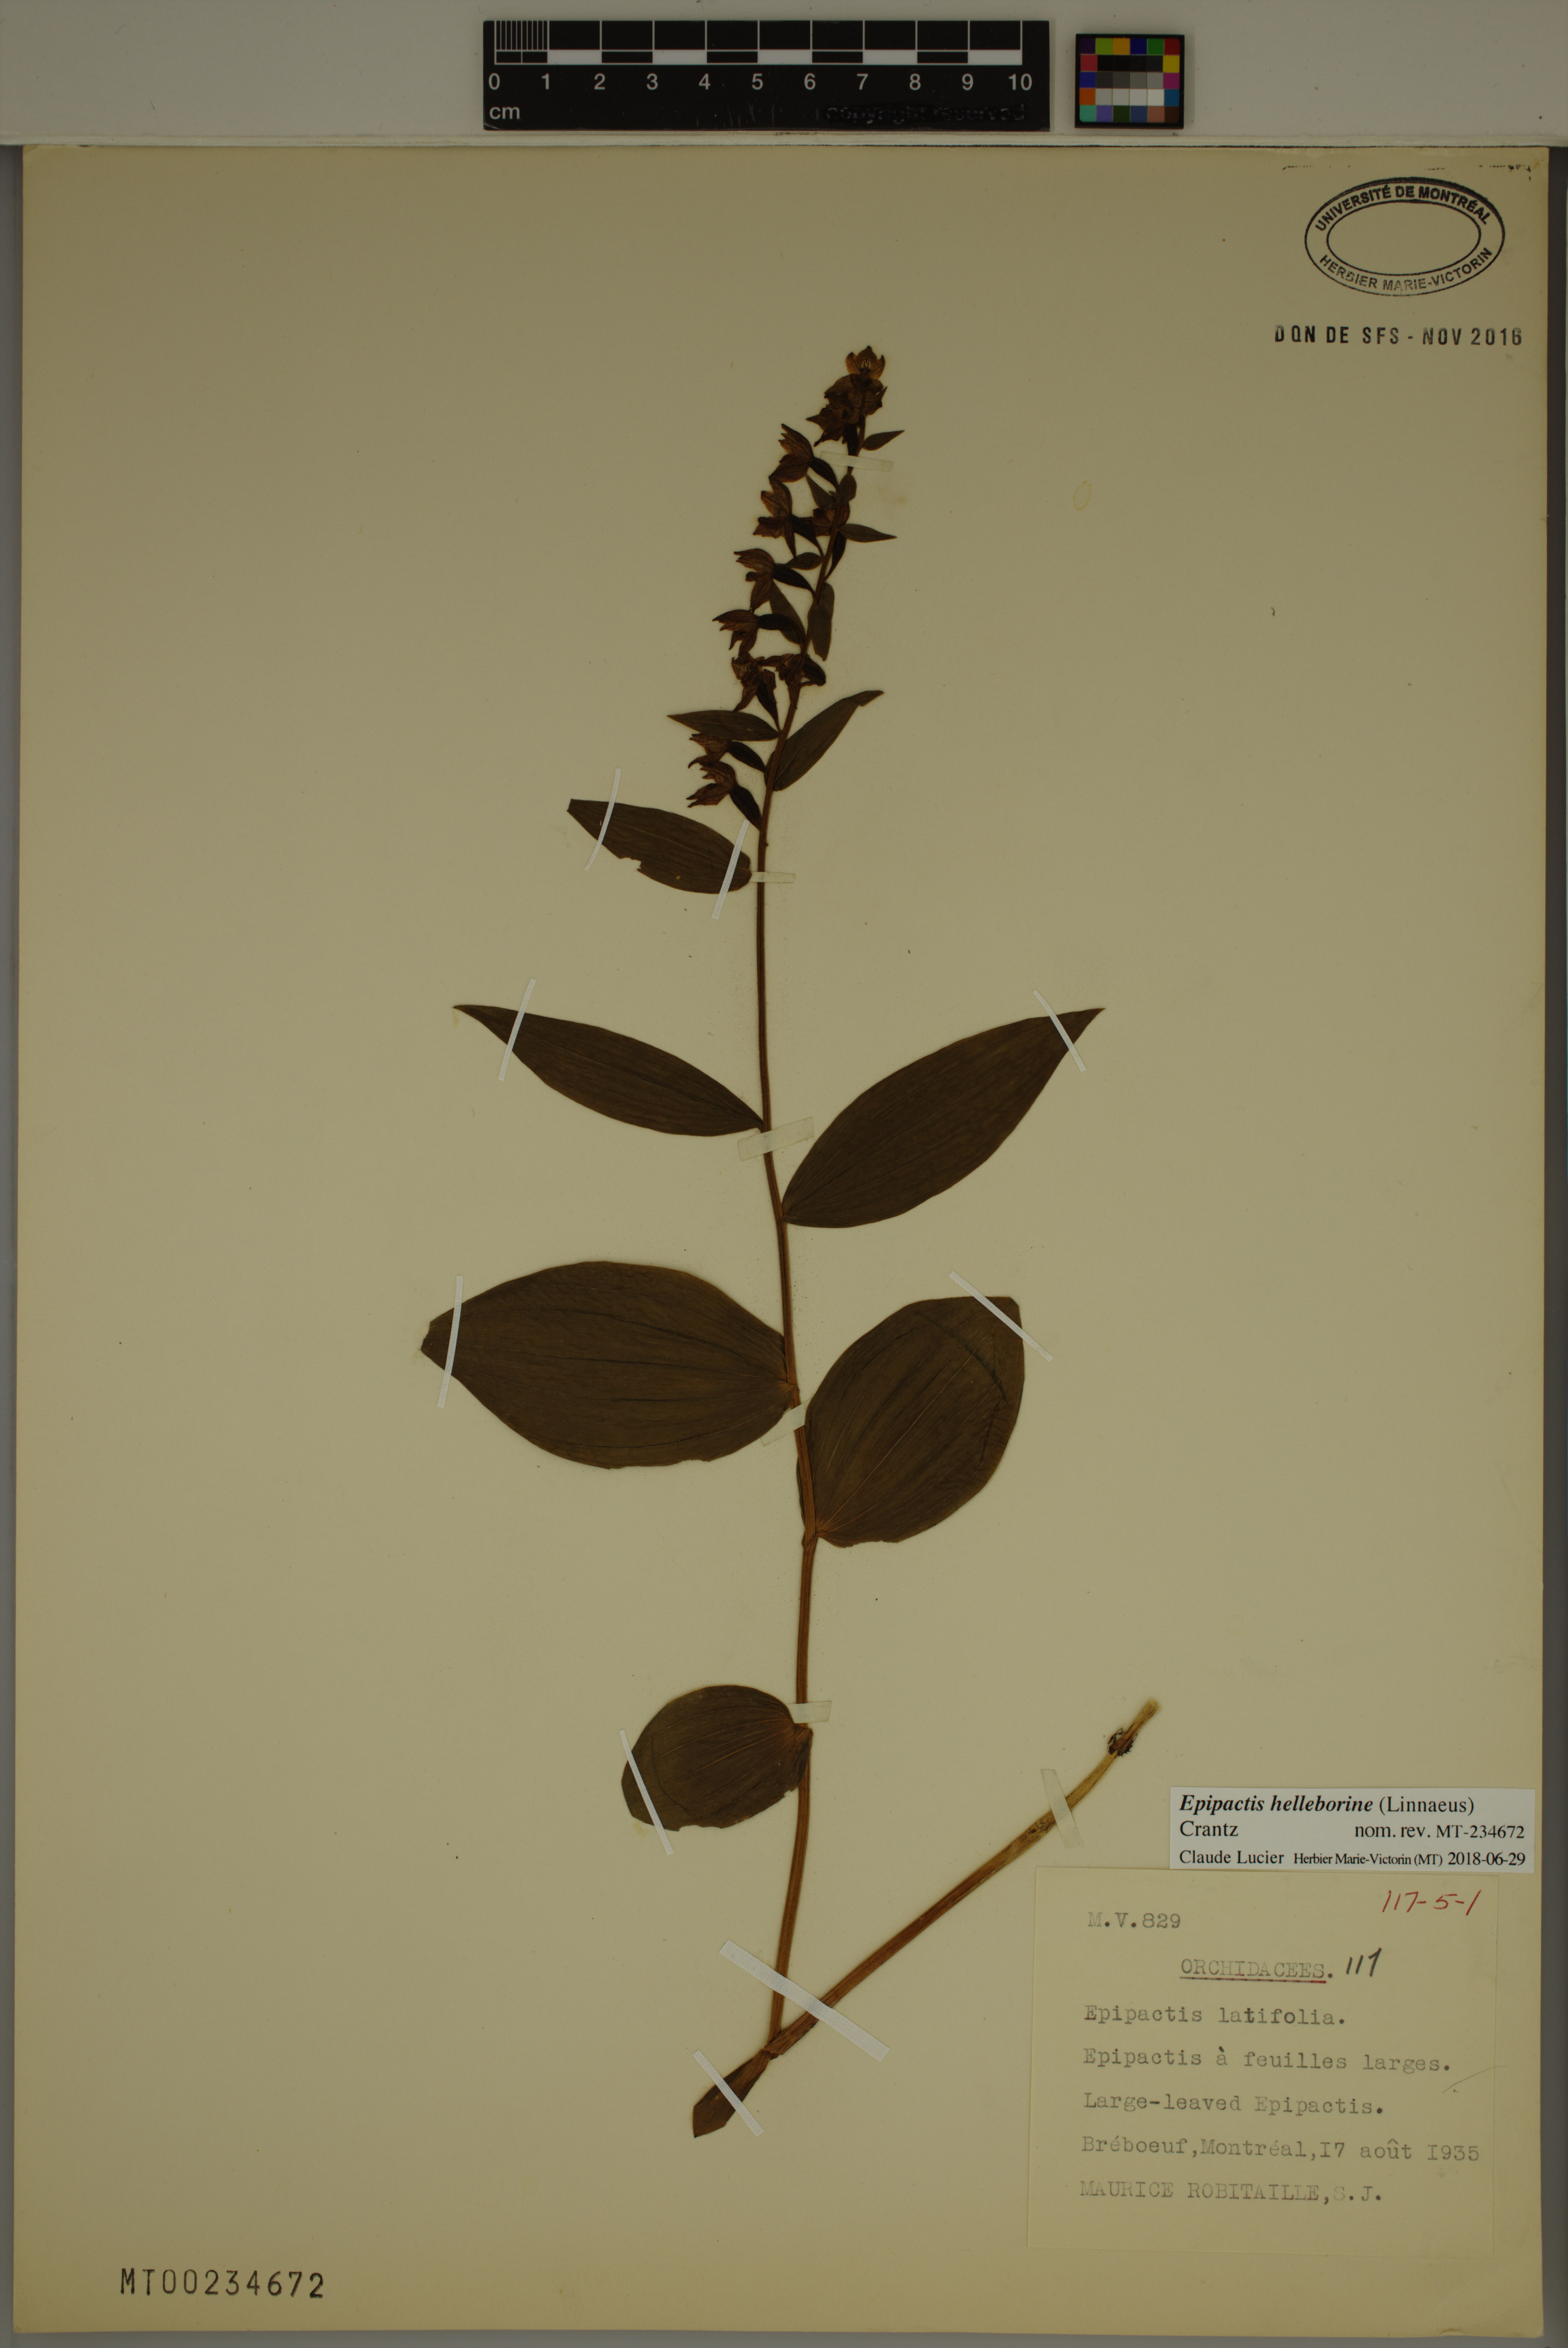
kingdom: Plantae
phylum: Tracheophyta
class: Liliopsida
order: Asparagales
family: Orchidaceae
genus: Epipactis
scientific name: Epipactis helleborine
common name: Broad-leaved helleborine
